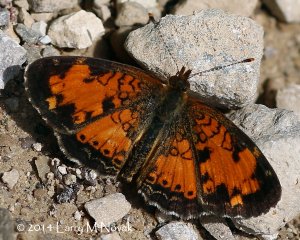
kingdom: Animalia
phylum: Arthropoda
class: Insecta
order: Lepidoptera
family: Nymphalidae
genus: Phyciodes
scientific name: Phyciodes tharos
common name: Northern Crescent
